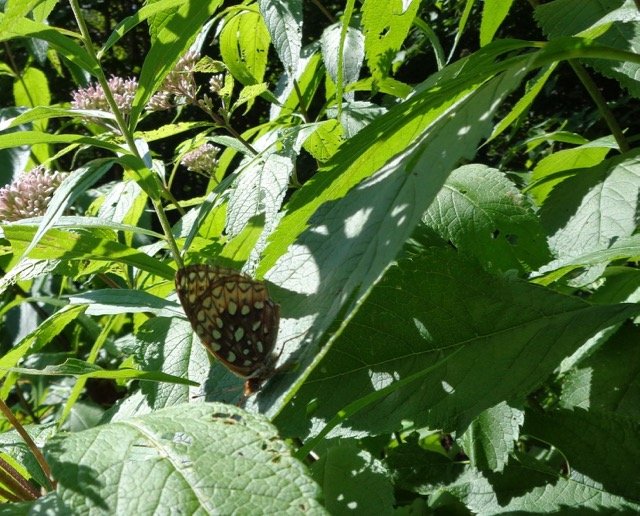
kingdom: Animalia
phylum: Arthropoda
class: Insecta
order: Lepidoptera
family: Nymphalidae
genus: Speyeria
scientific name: Speyeria atlantis
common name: Atlantis Fritillary
